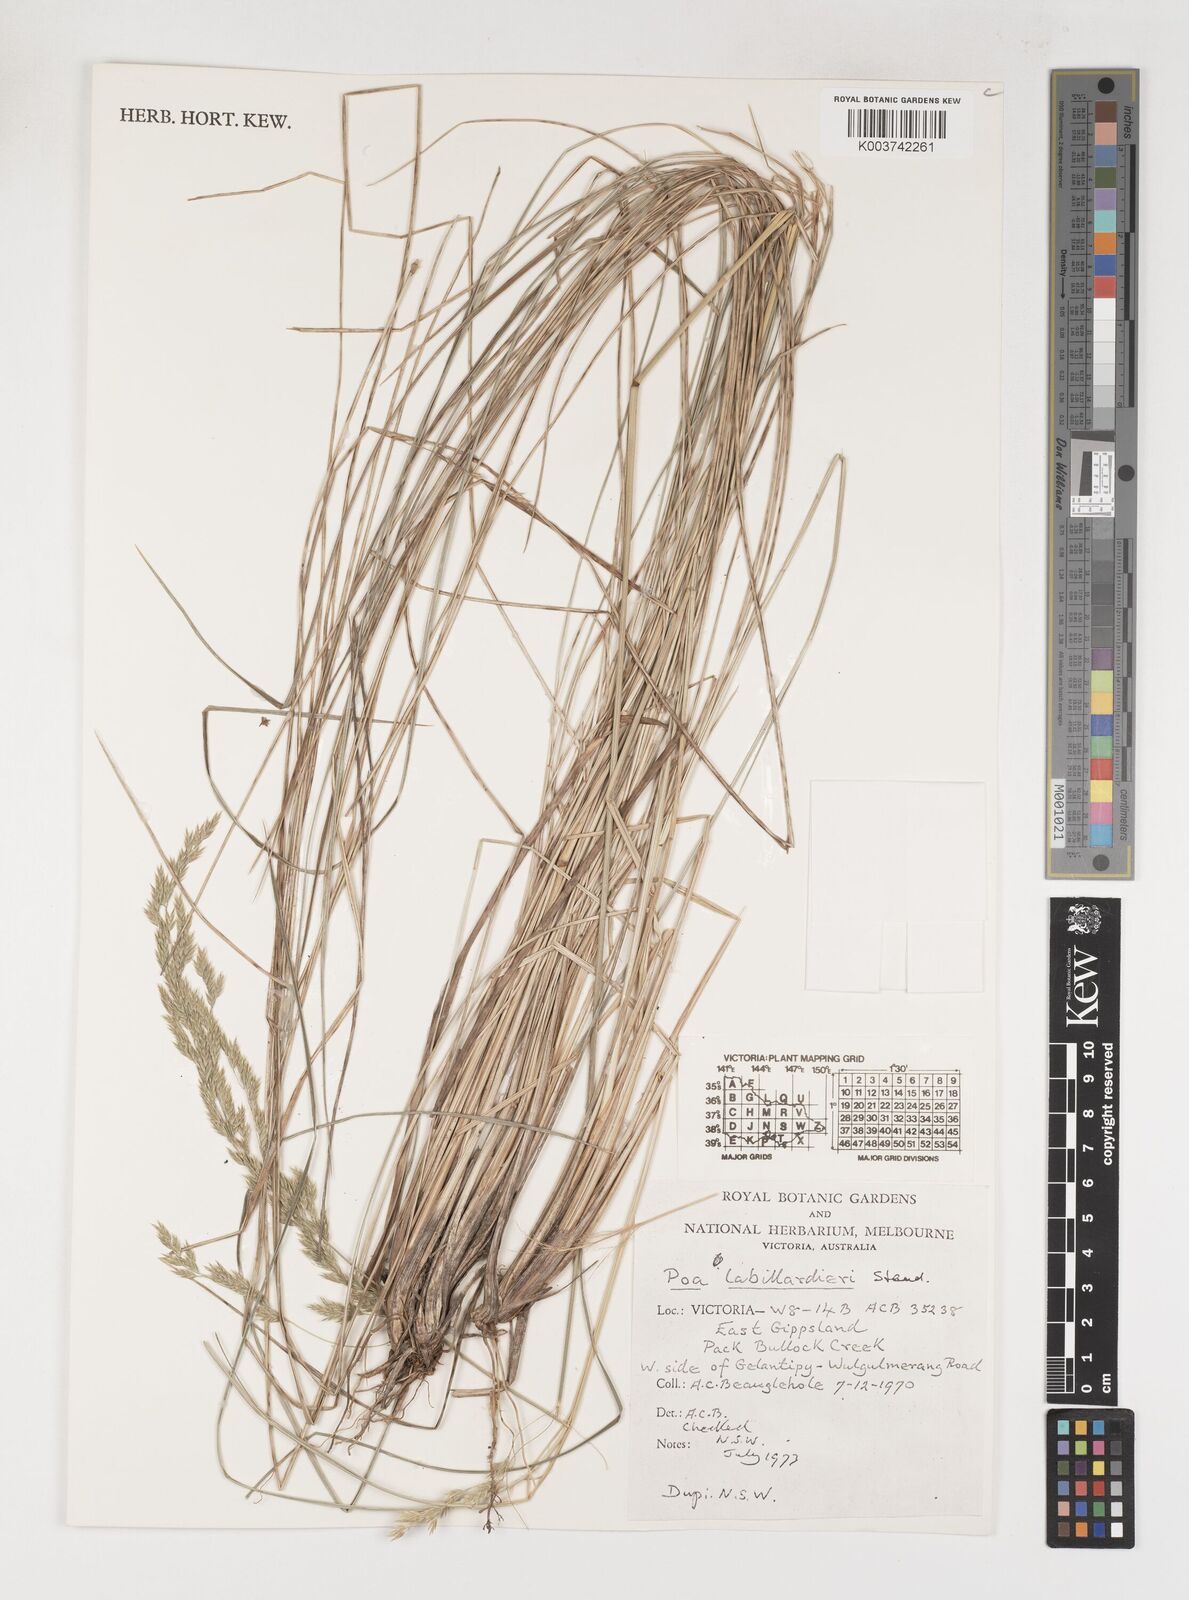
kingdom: Plantae
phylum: Tracheophyta
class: Liliopsida
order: Poales
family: Poaceae
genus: Poa
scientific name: Poa labillardierei
